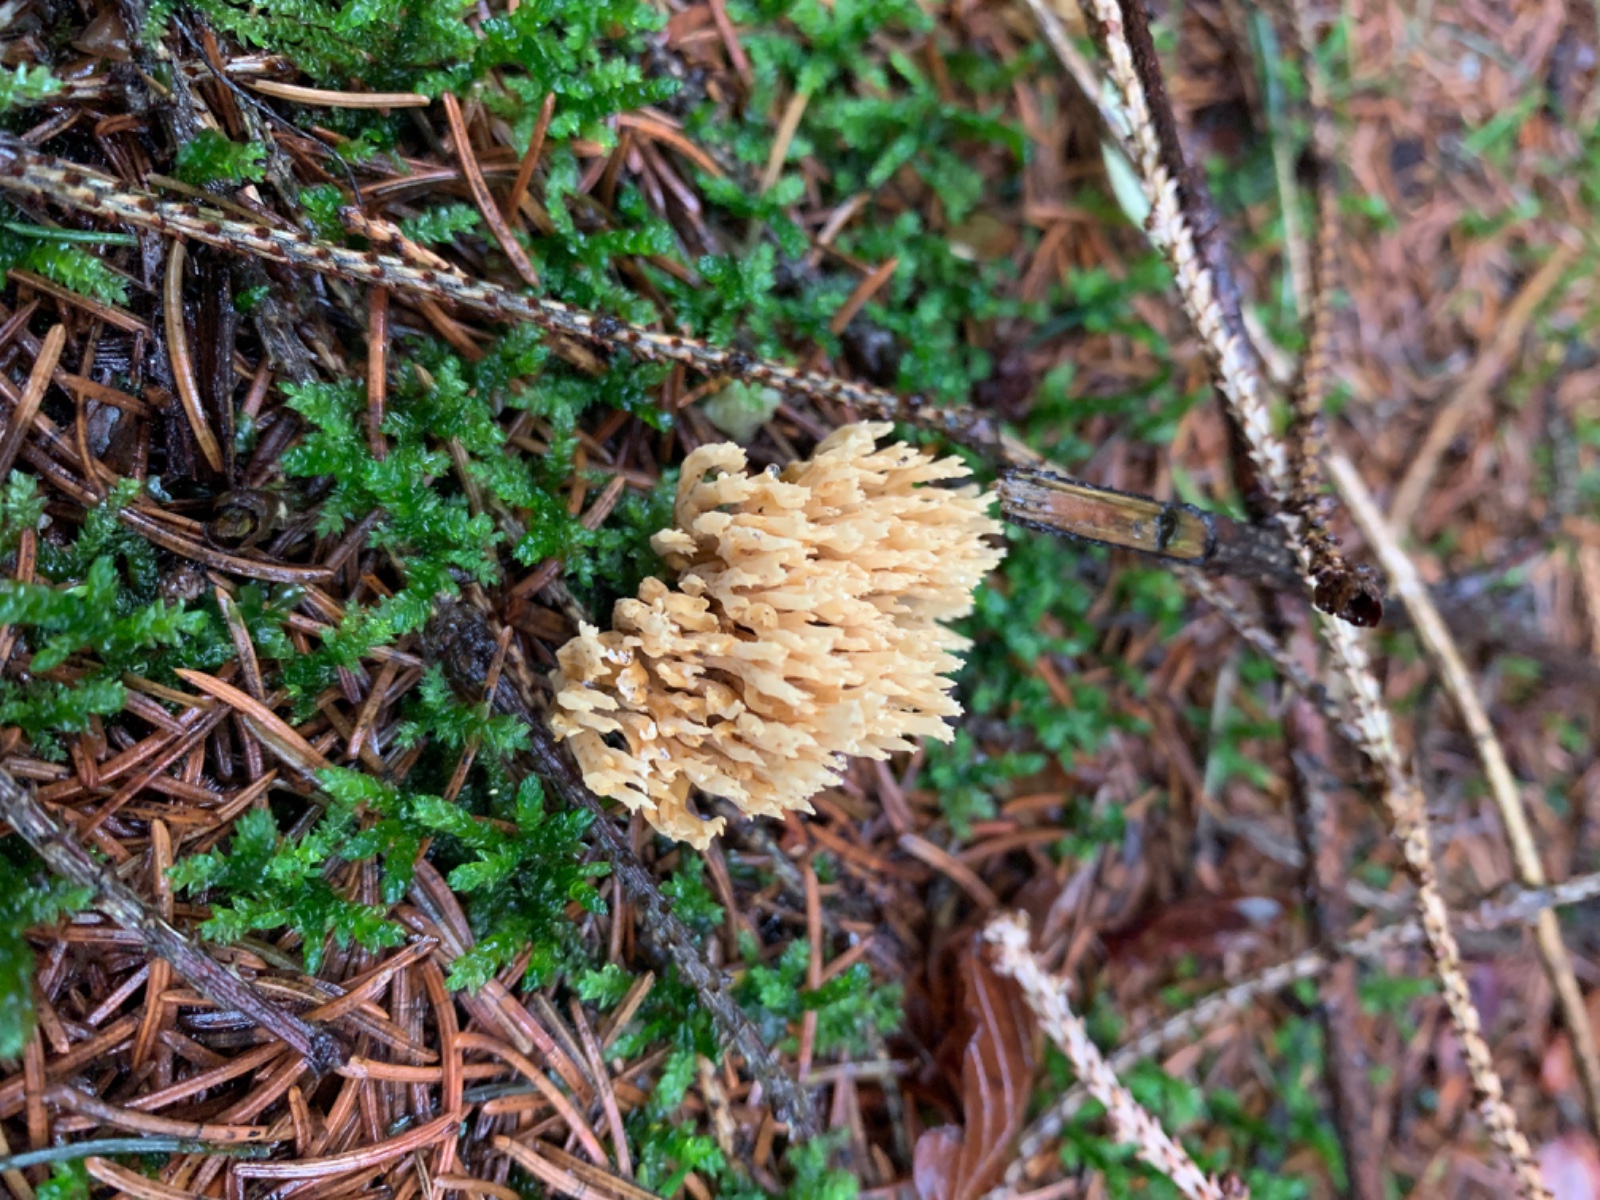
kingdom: Fungi
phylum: Basidiomycota
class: Agaricomycetes
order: Gomphales
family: Gomphaceae
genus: Phaeoclavulina
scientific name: Phaeoclavulina eumorpha
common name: gran-koralsvamp
